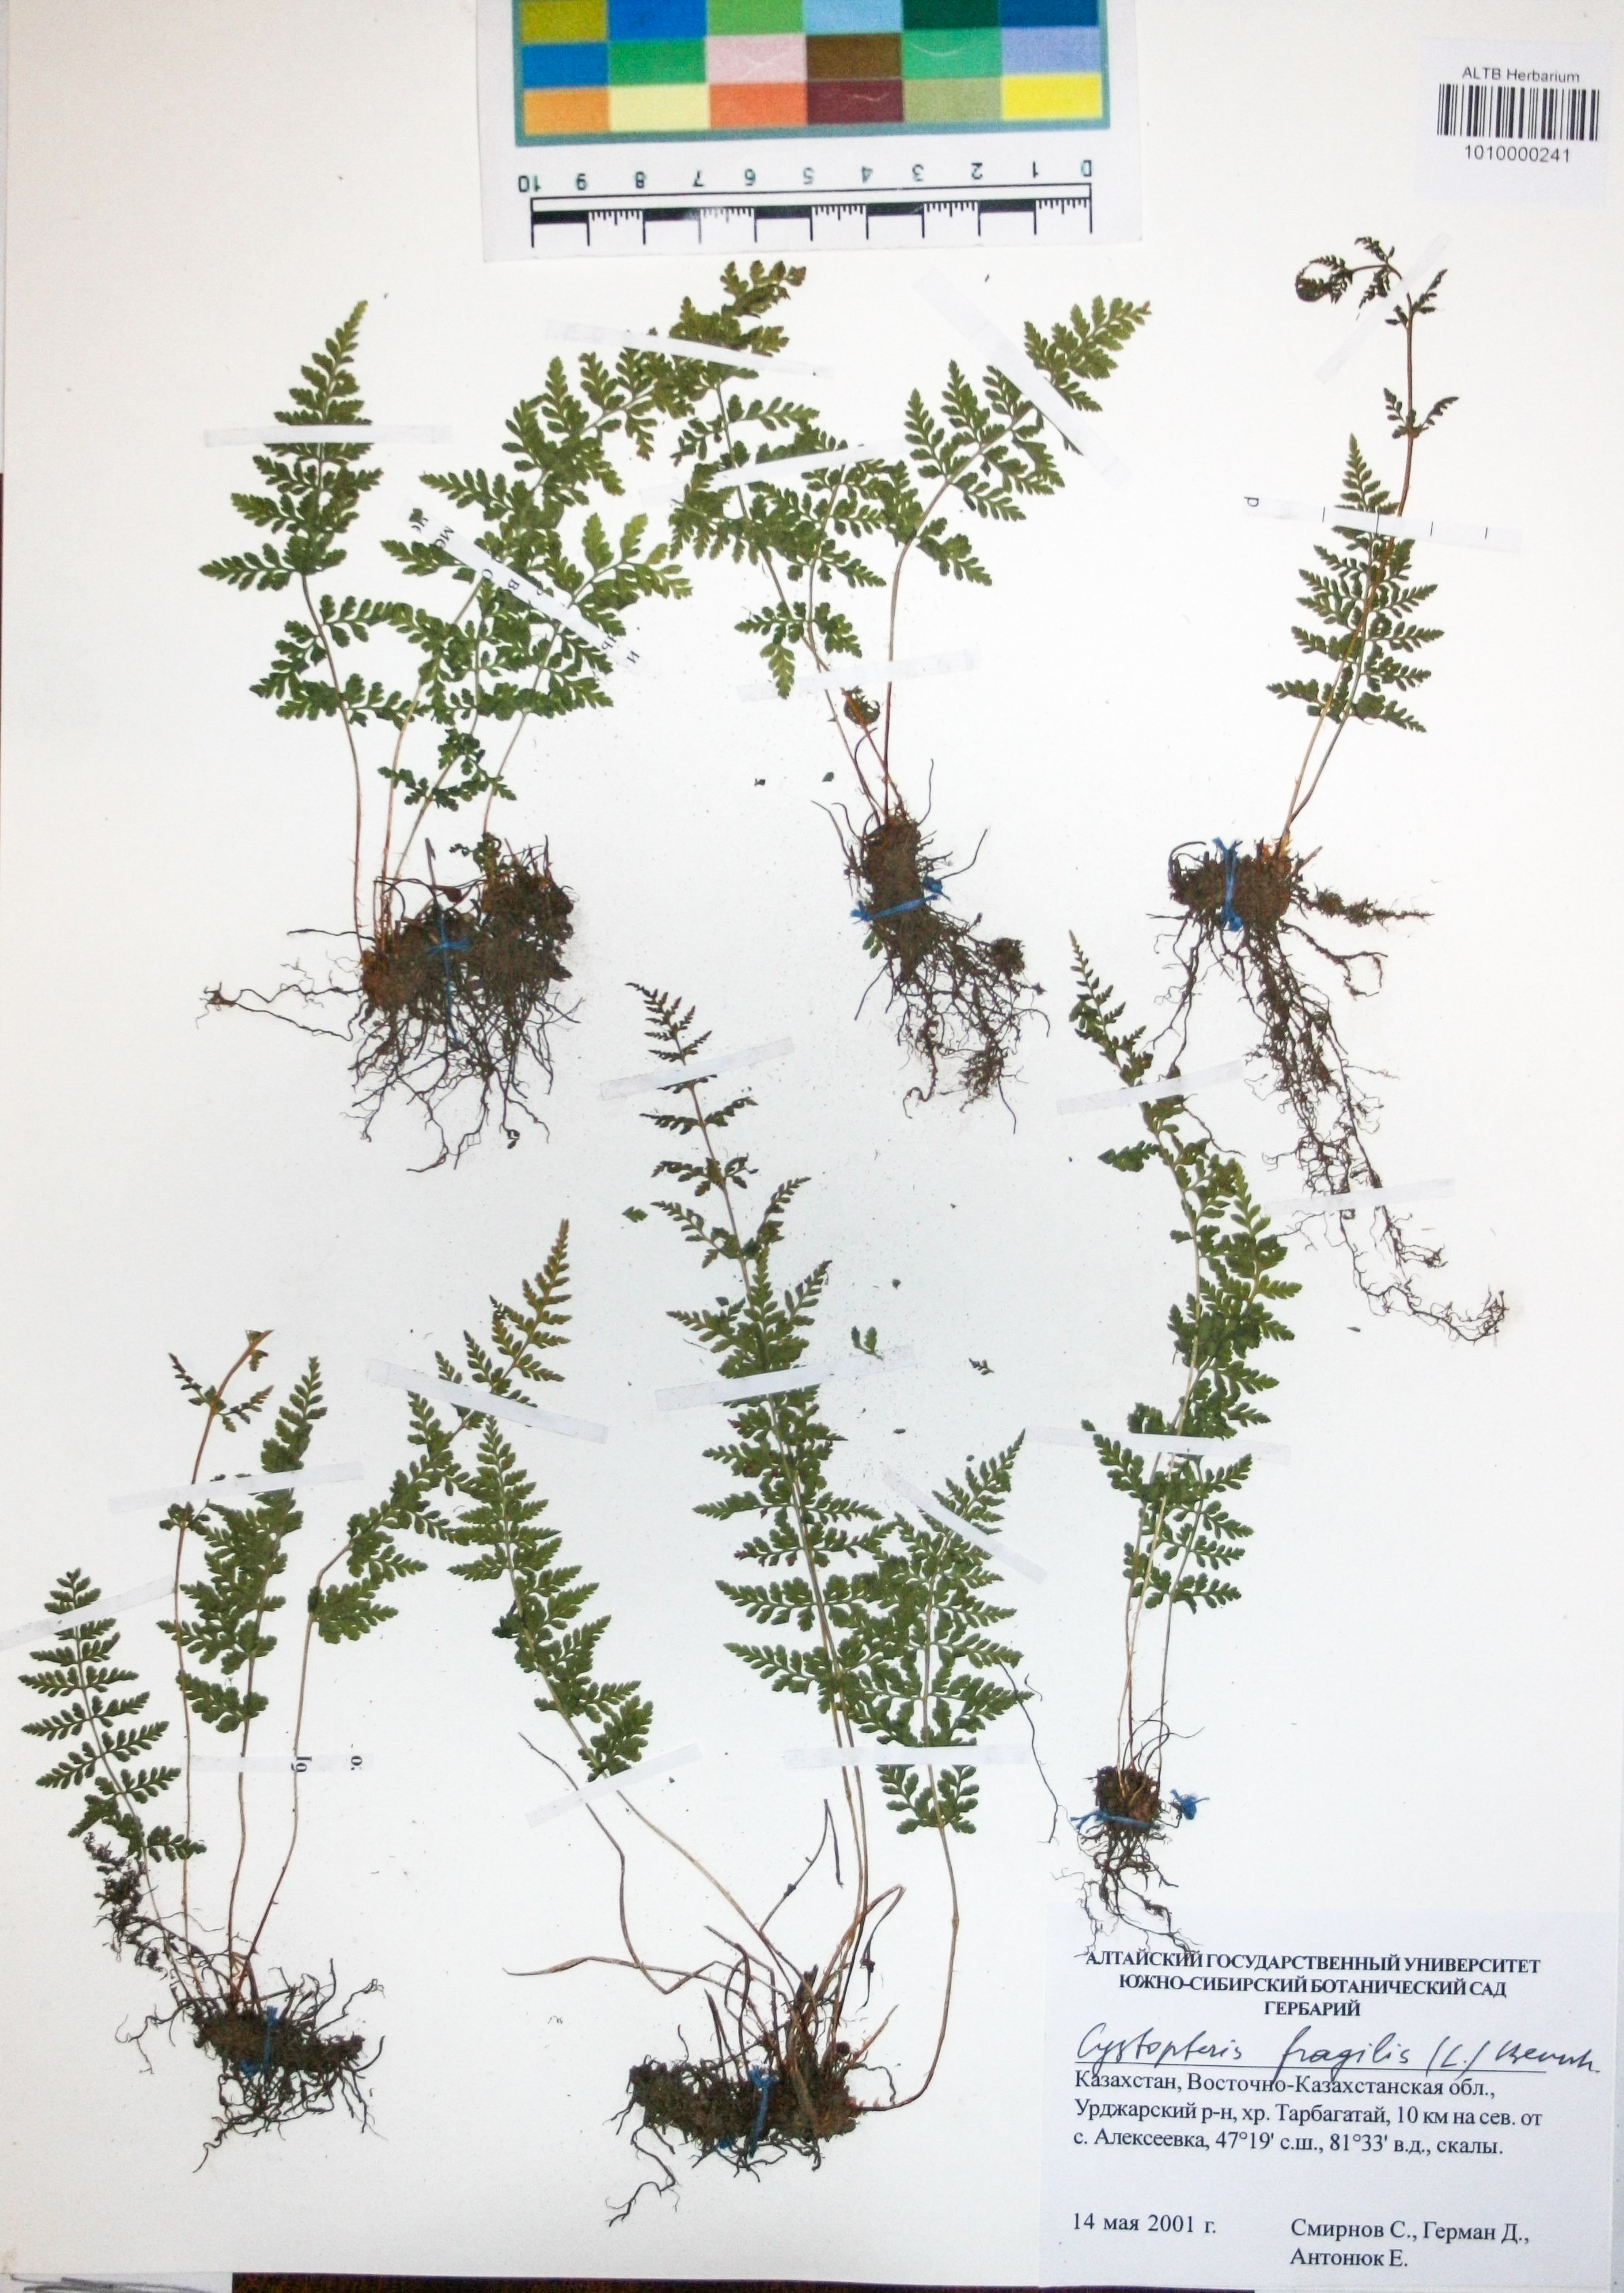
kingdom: Plantae
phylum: Tracheophyta
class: Polypodiopsida
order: Polypodiales
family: Cystopteridaceae
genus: Cystopteris
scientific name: Cystopteris fragilis
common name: Brittle bladder fern
